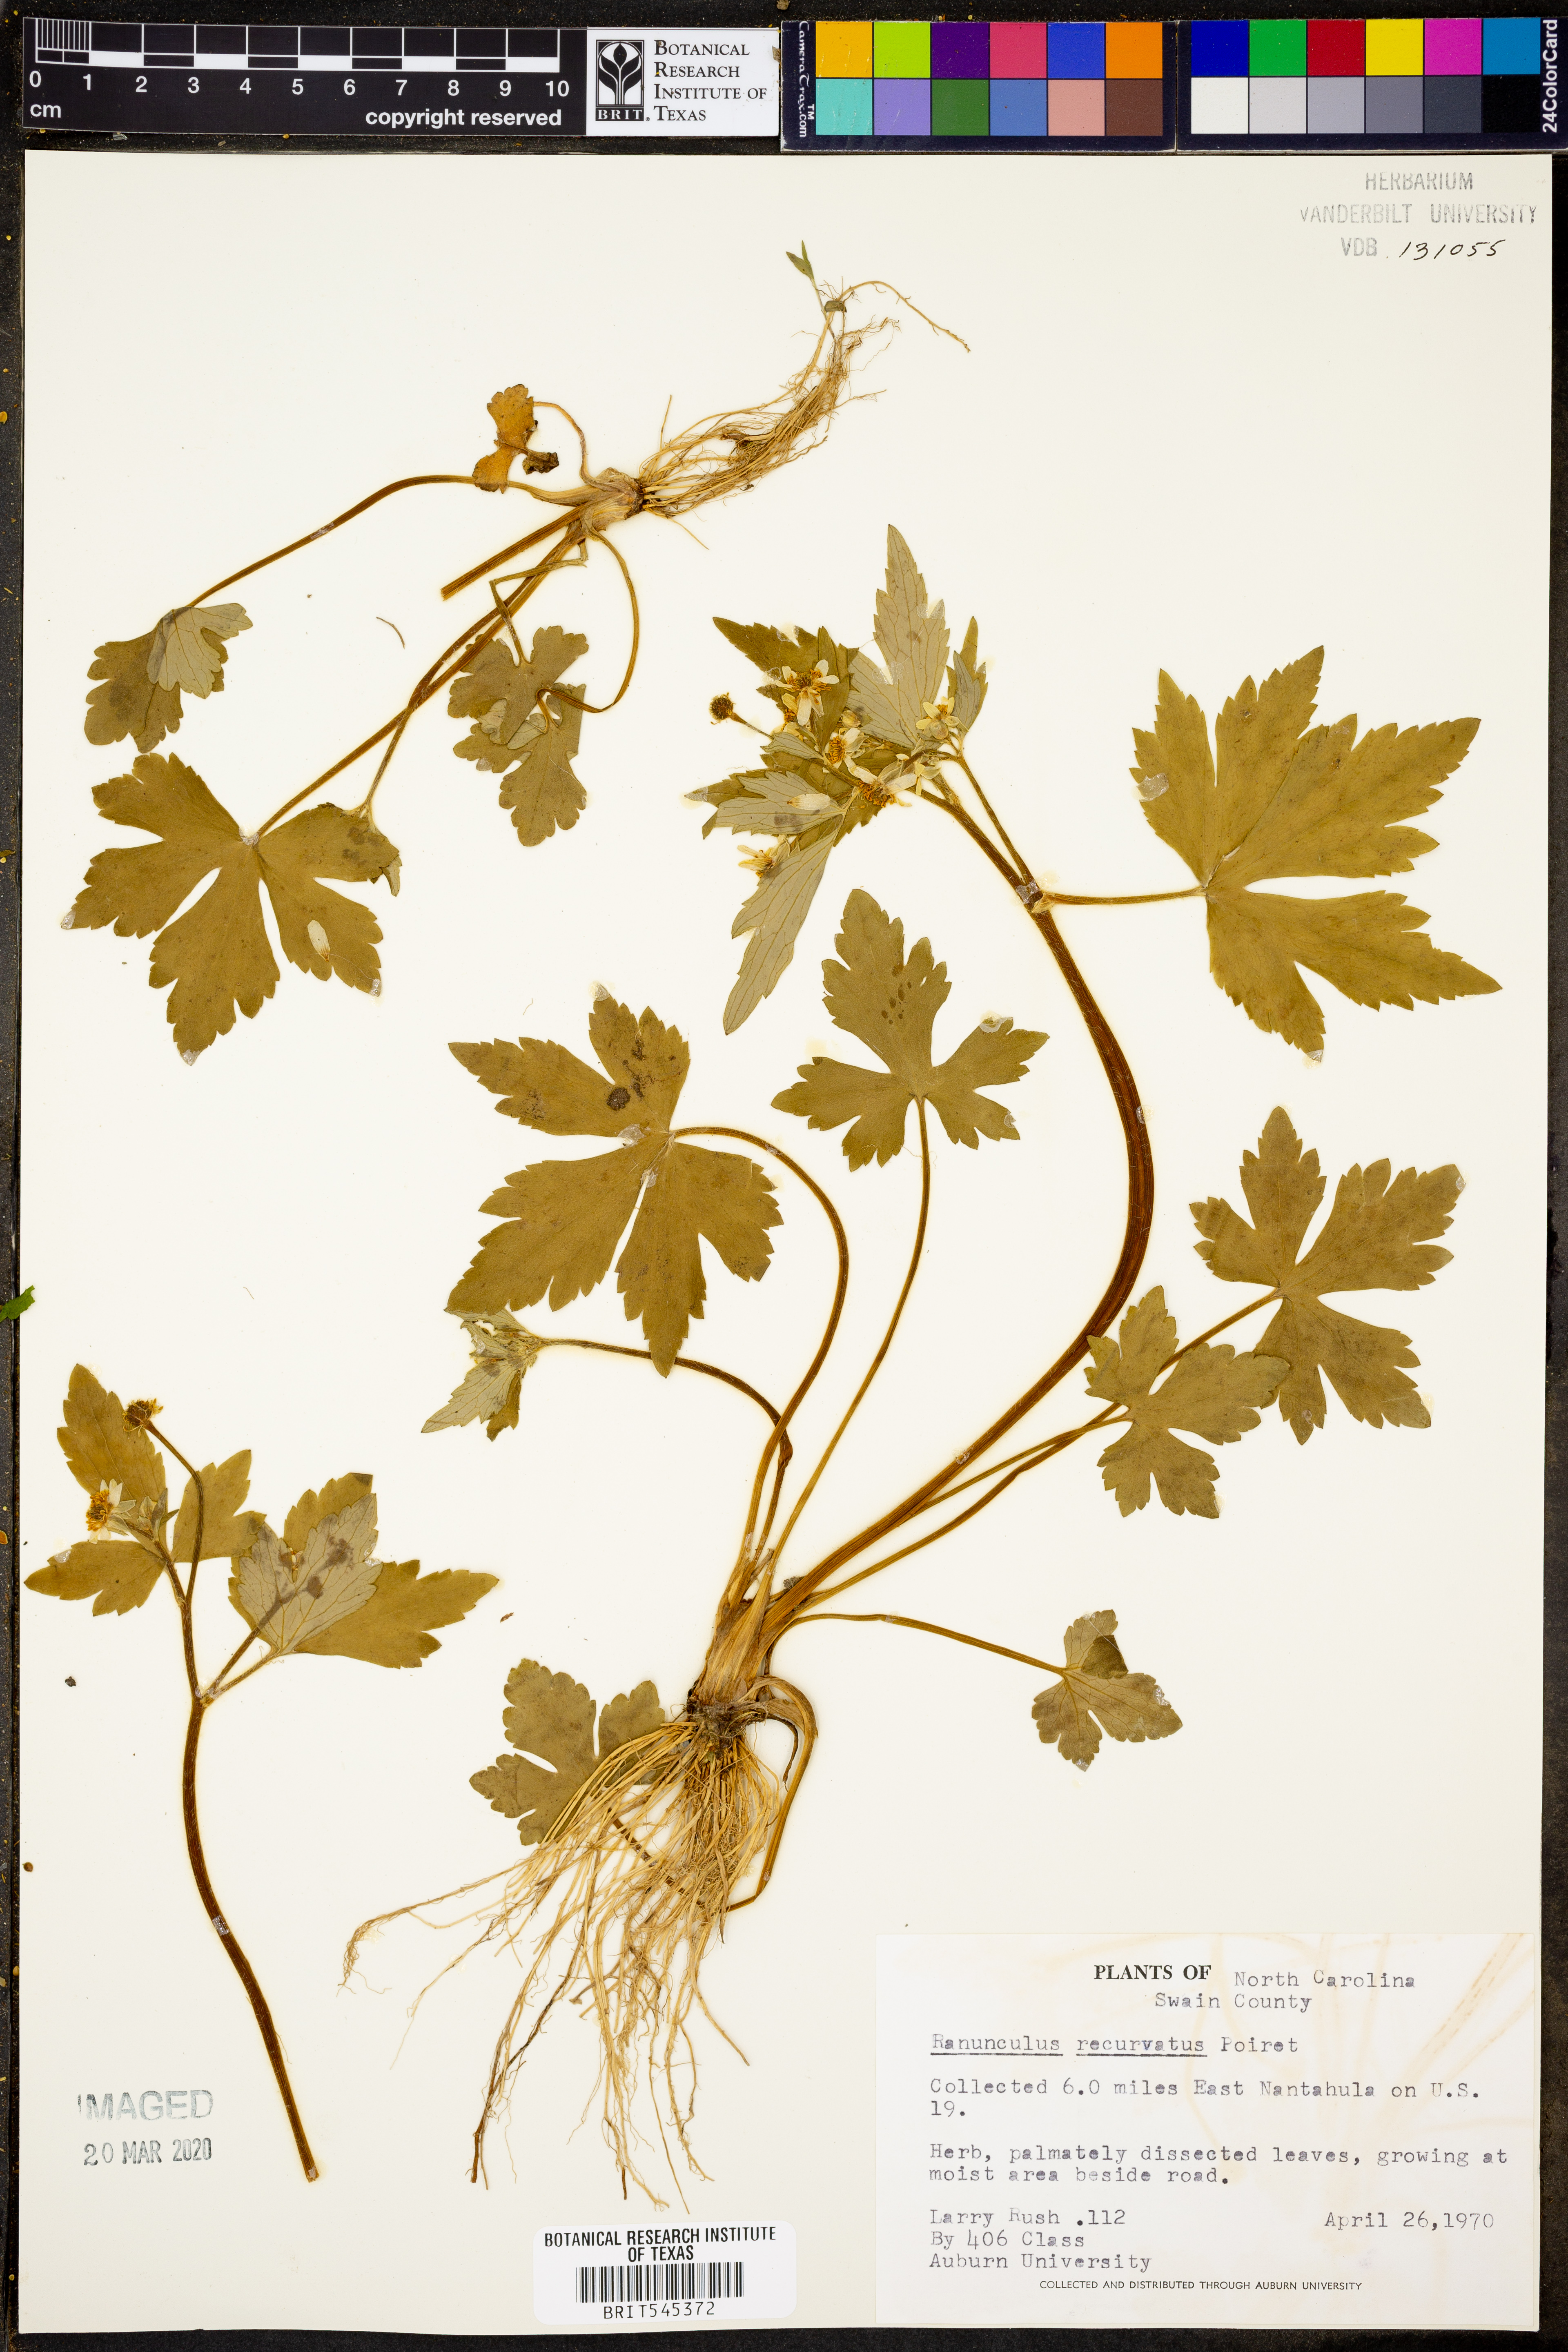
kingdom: Plantae
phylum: Tracheophyta
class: Magnoliopsida
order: Ranunculales
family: Ranunculaceae
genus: Ranunculus
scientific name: Ranunculus recurvatus
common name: Blisterwort
